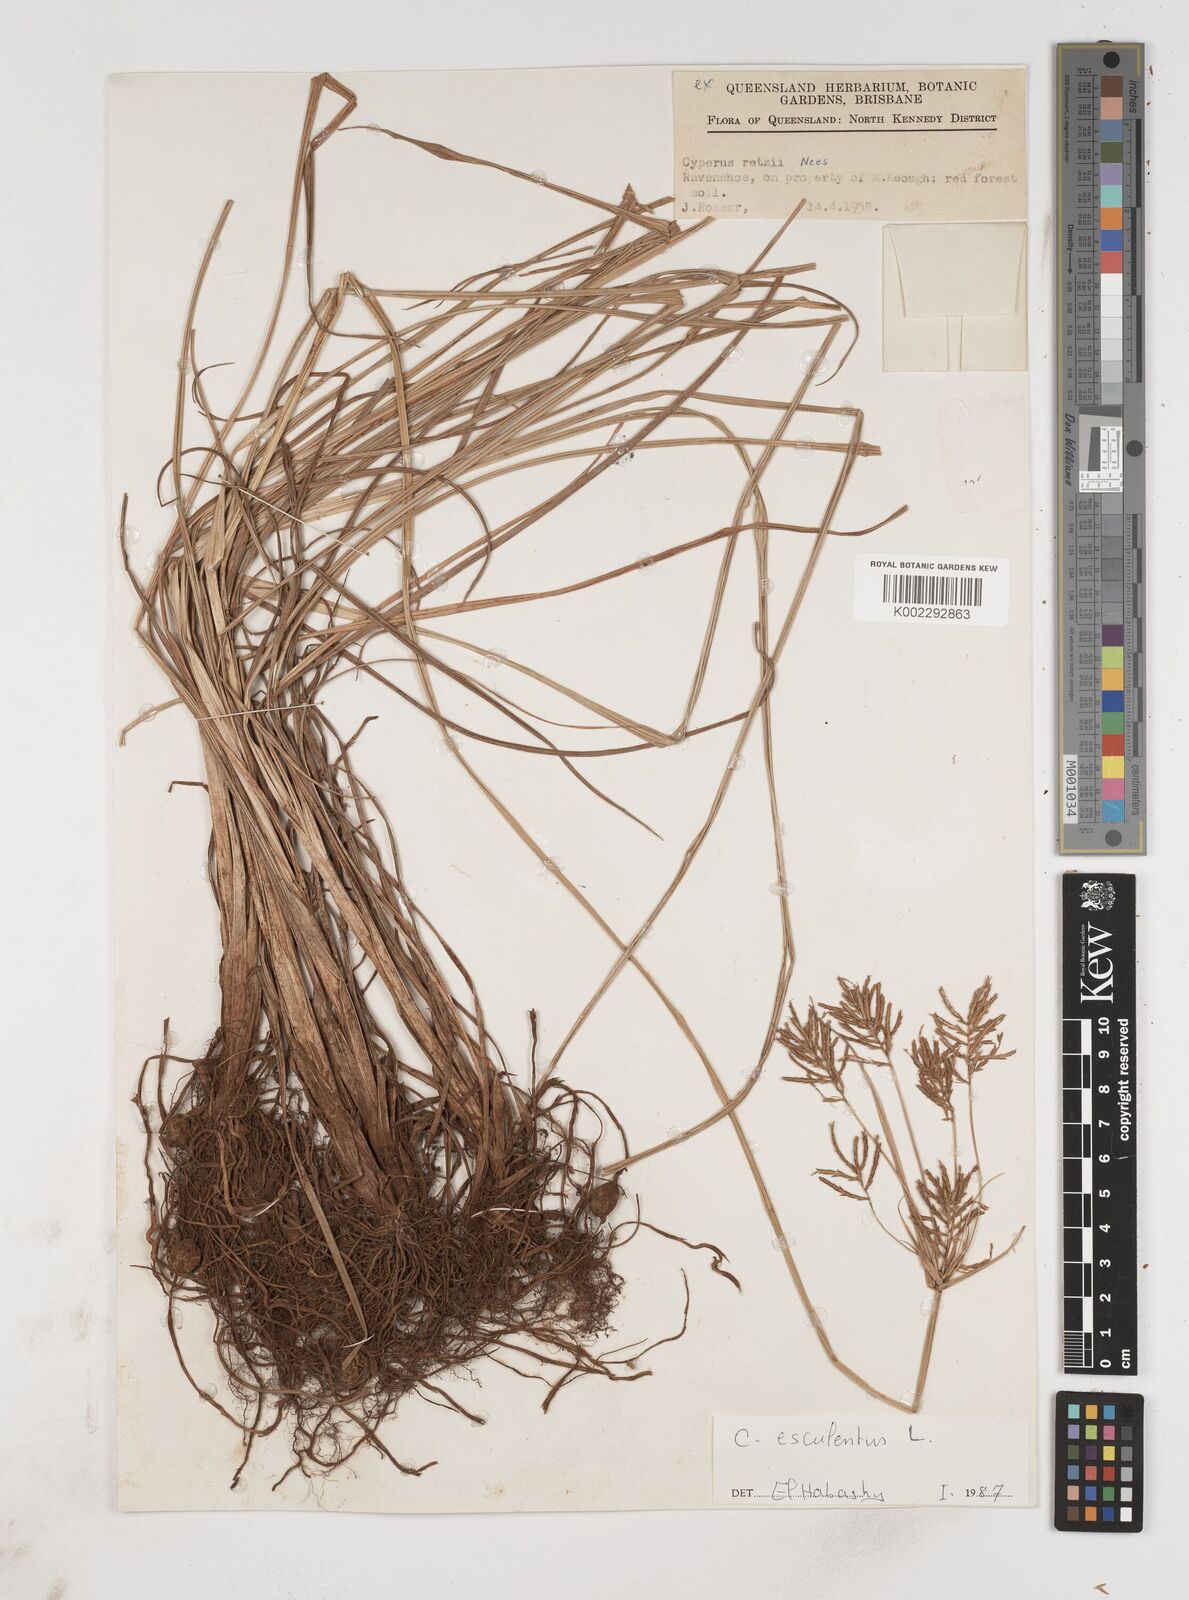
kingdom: Plantae
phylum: Tracheophyta
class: Liliopsida
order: Poales
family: Cyperaceae
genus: Cyperus
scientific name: Cyperus esculentus
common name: Yellow nutsedge
